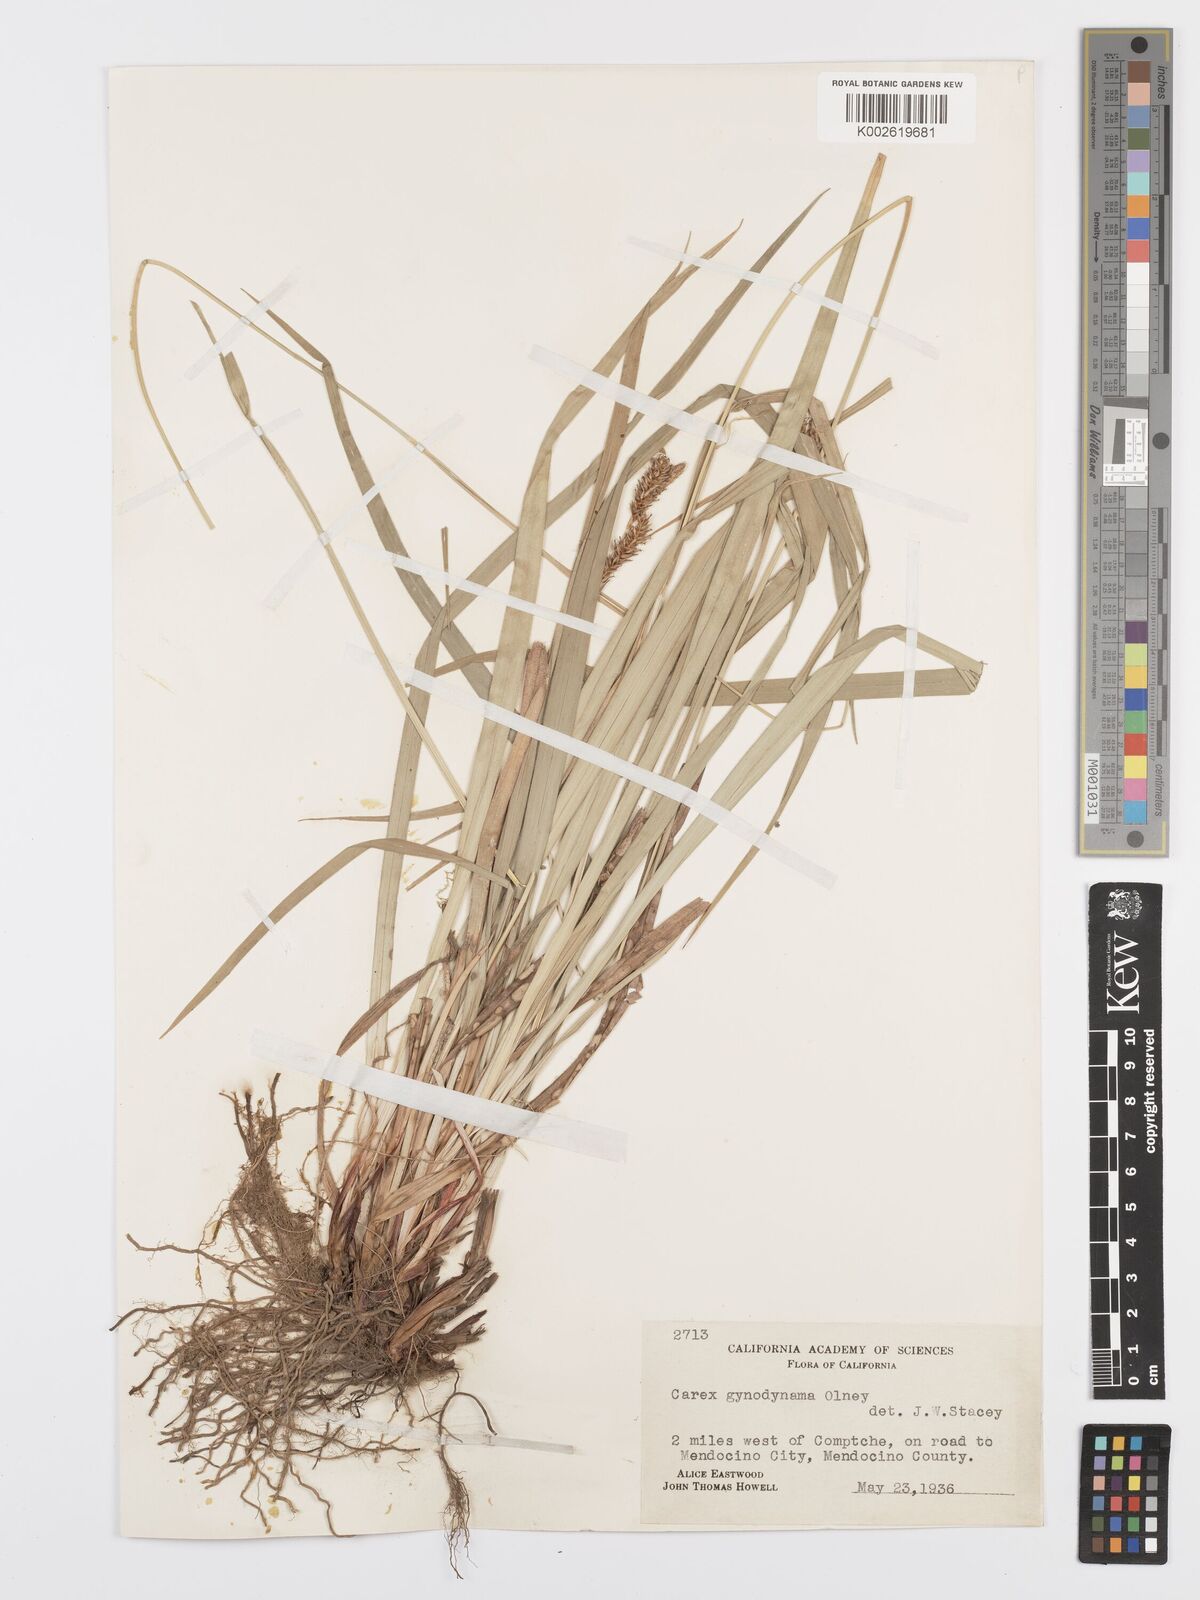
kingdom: Plantae
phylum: Tracheophyta
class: Liliopsida
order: Poales
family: Cyperaceae
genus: Carex
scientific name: Carex gynodynama
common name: Olney's hairy sedge
